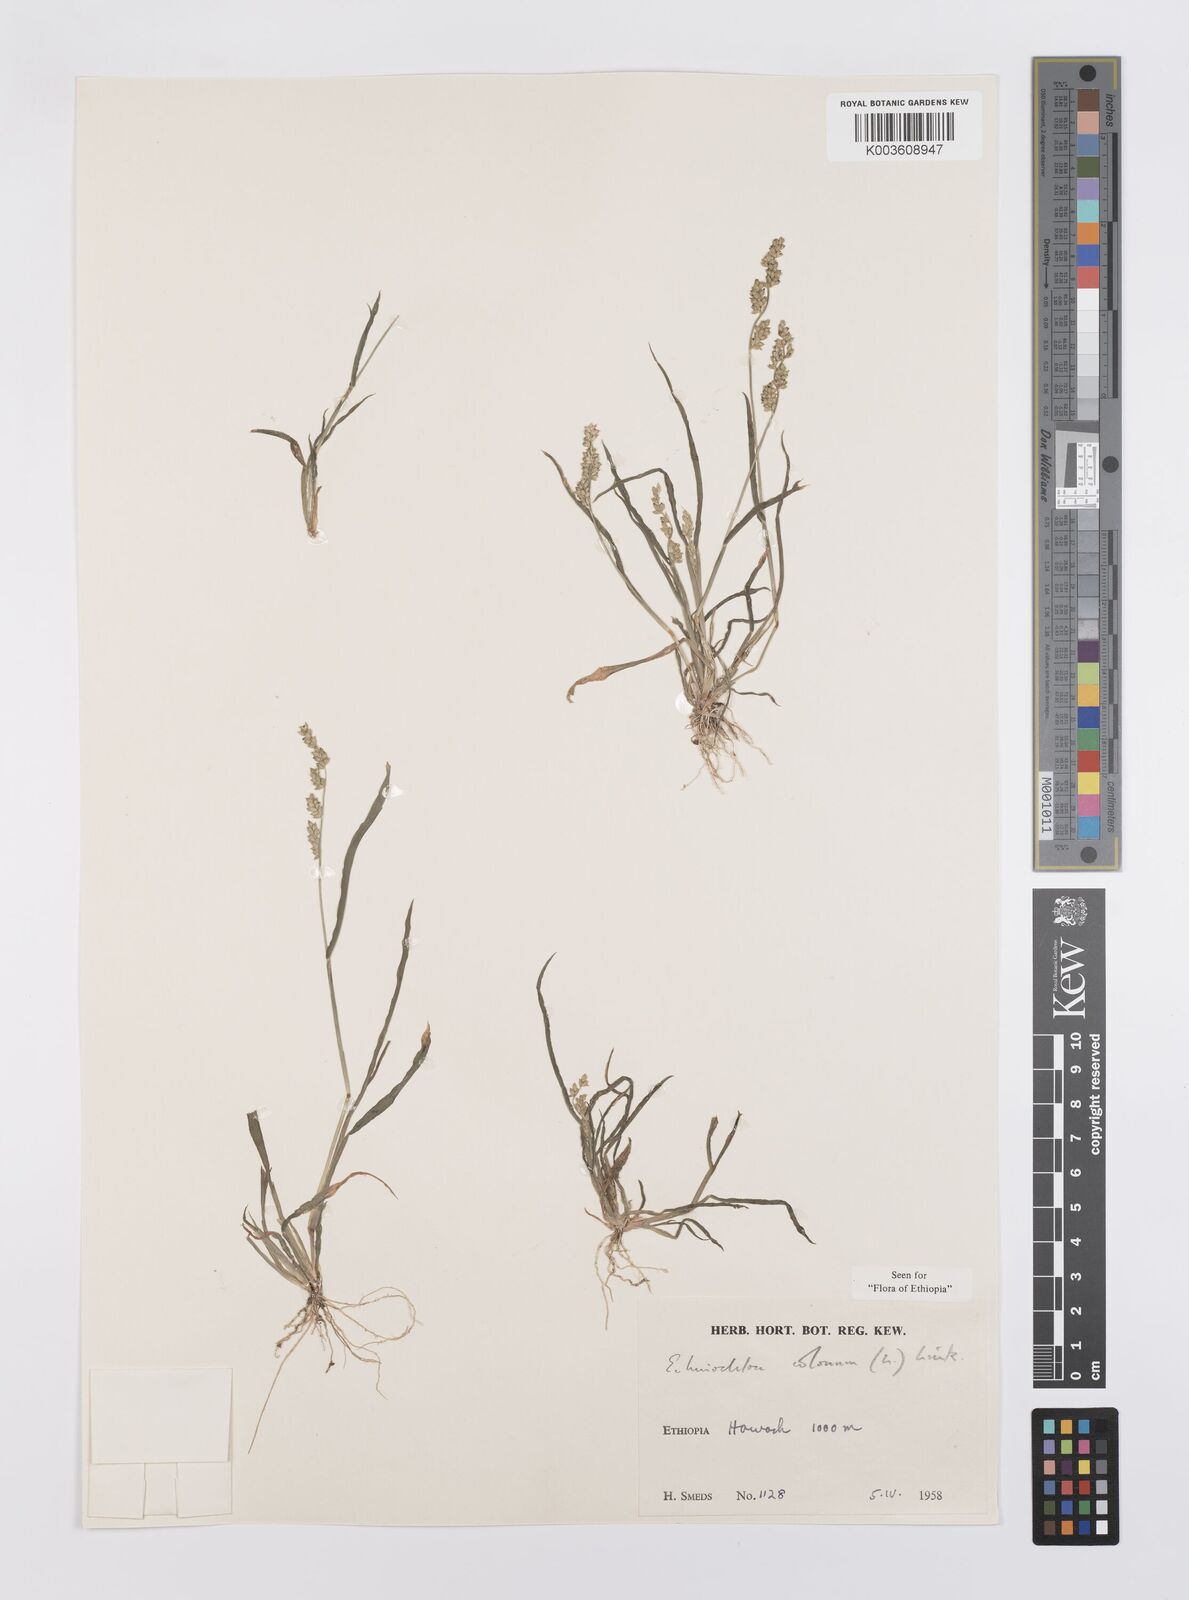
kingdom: Plantae
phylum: Tracheophyta
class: Liliopsida
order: Poales
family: Poaceae
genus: Echinochloa
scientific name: Echinochloa colonum
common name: Jungle rice
